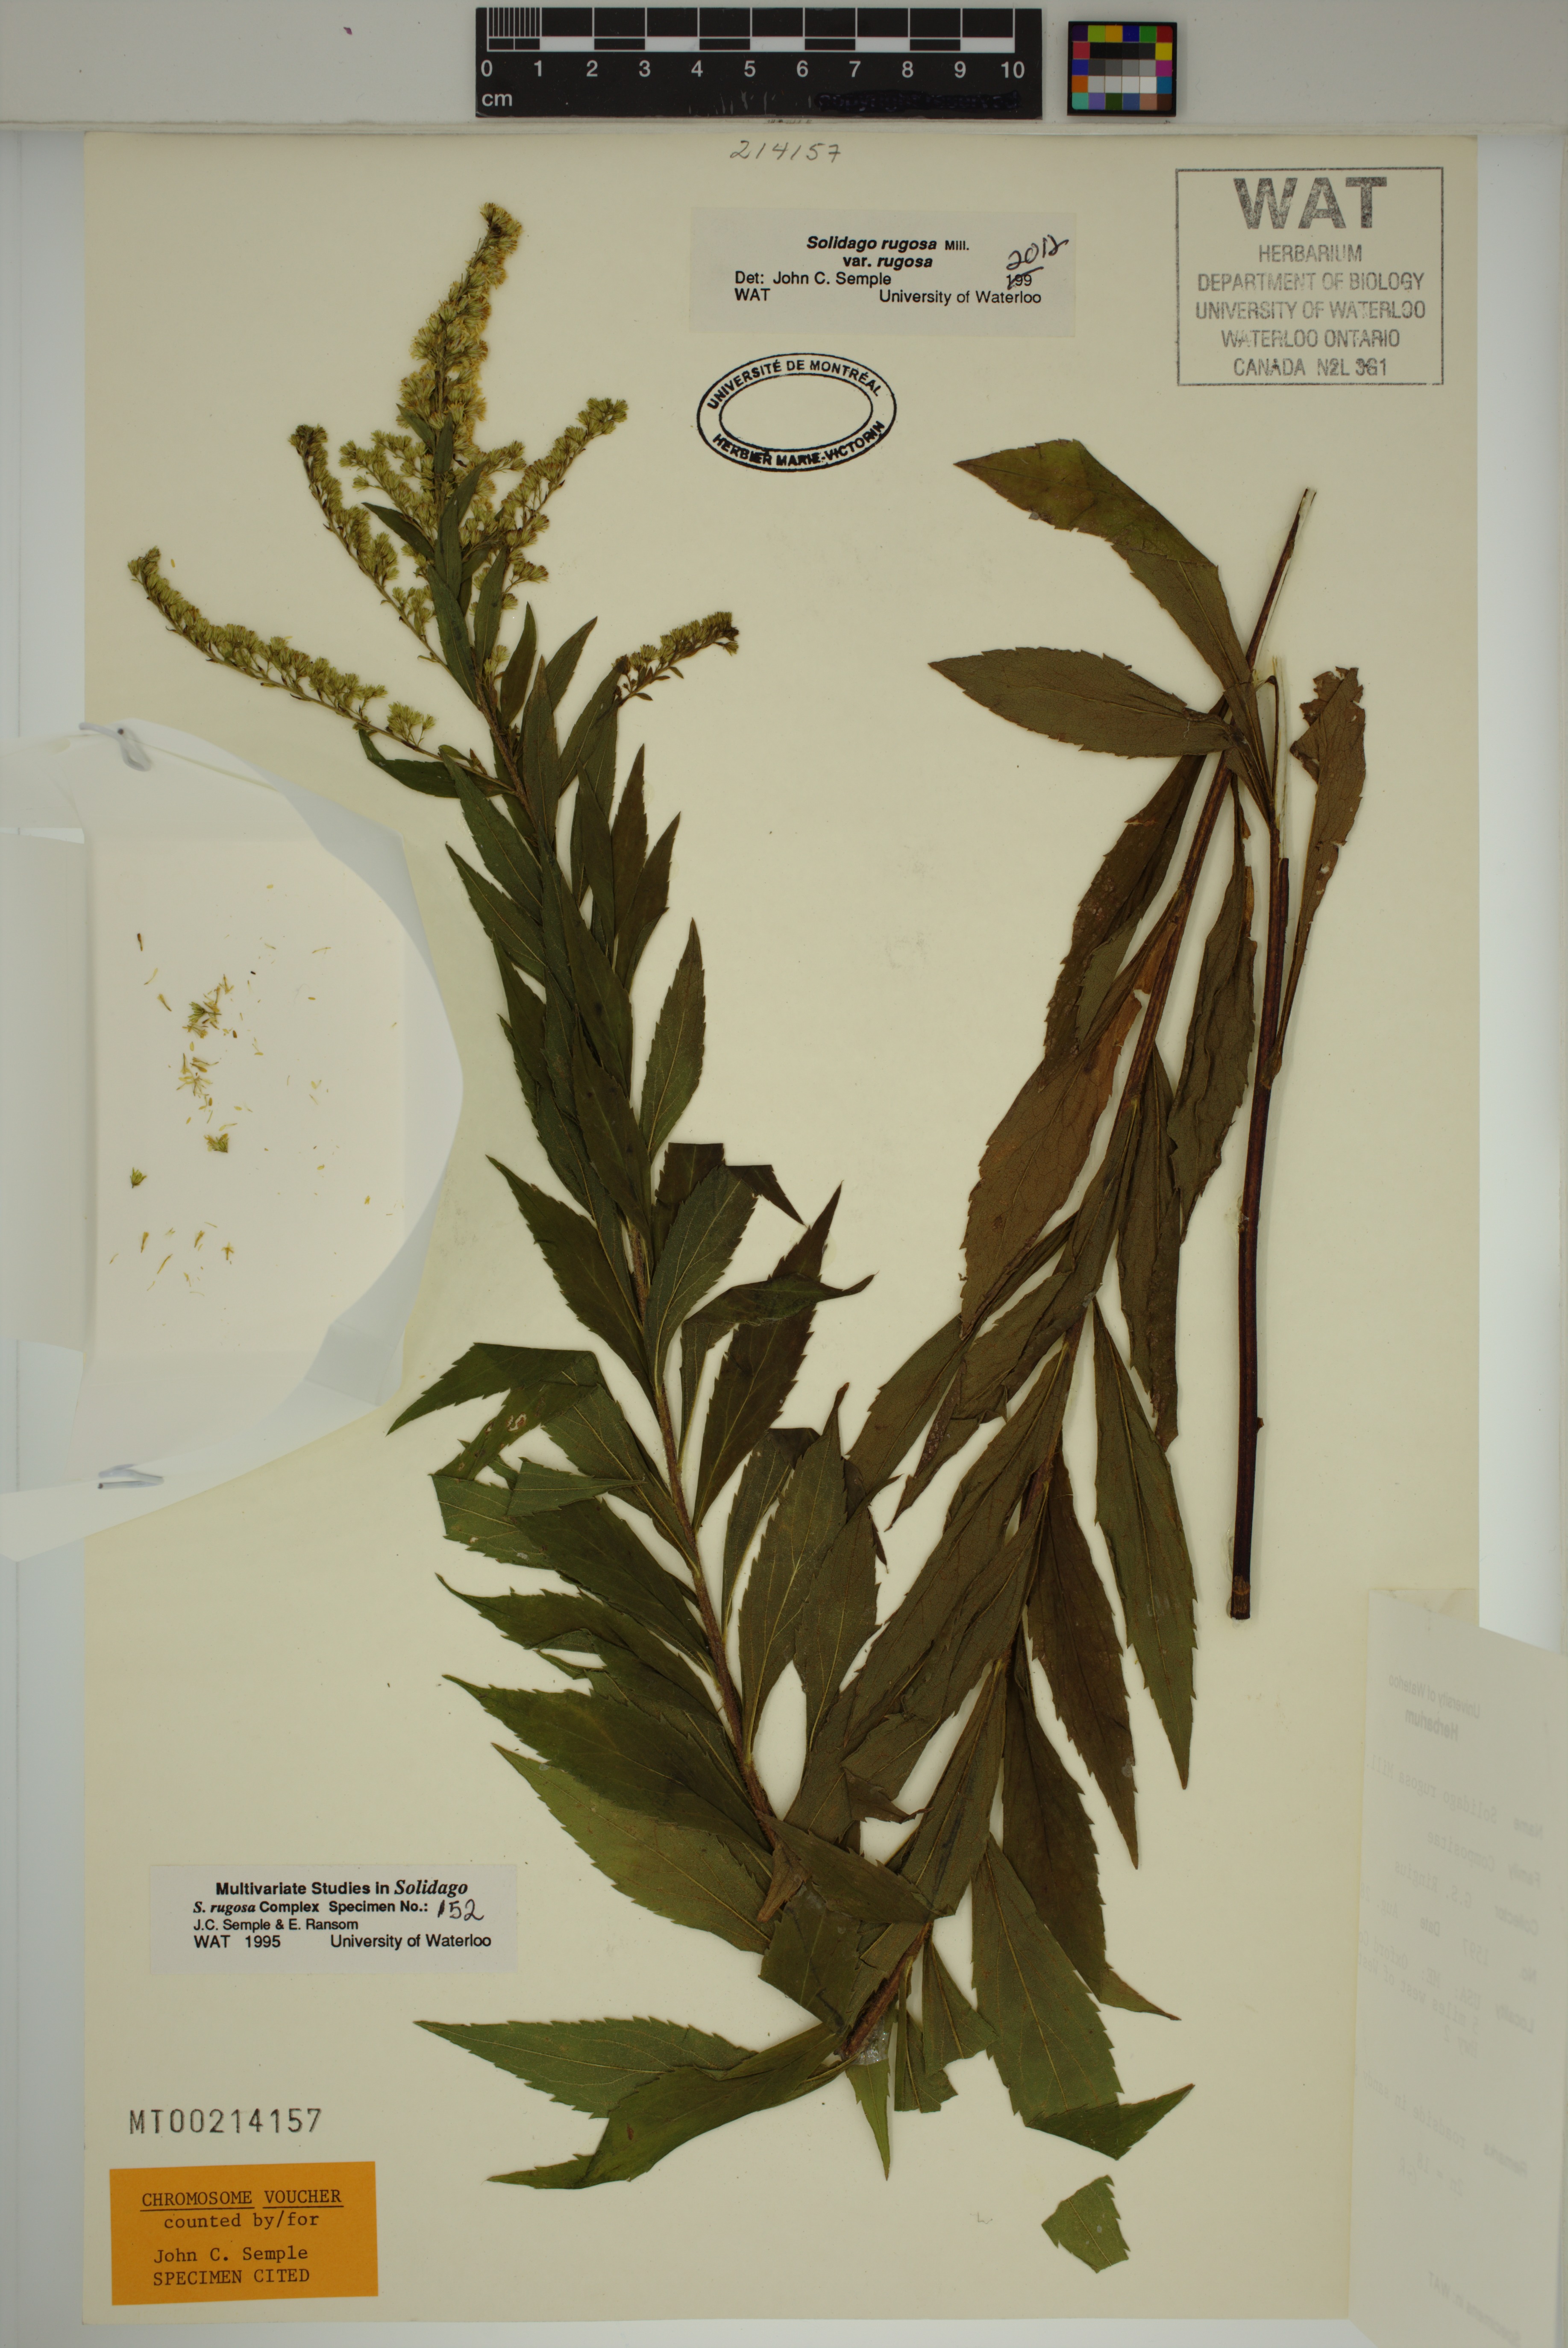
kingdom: Plantae
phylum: Tracheophyta
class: Magnoliopsida
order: Asterales
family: Asteraceae
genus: Solidago
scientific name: Solidago rugosa
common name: Rough-stemmed goldenrod
